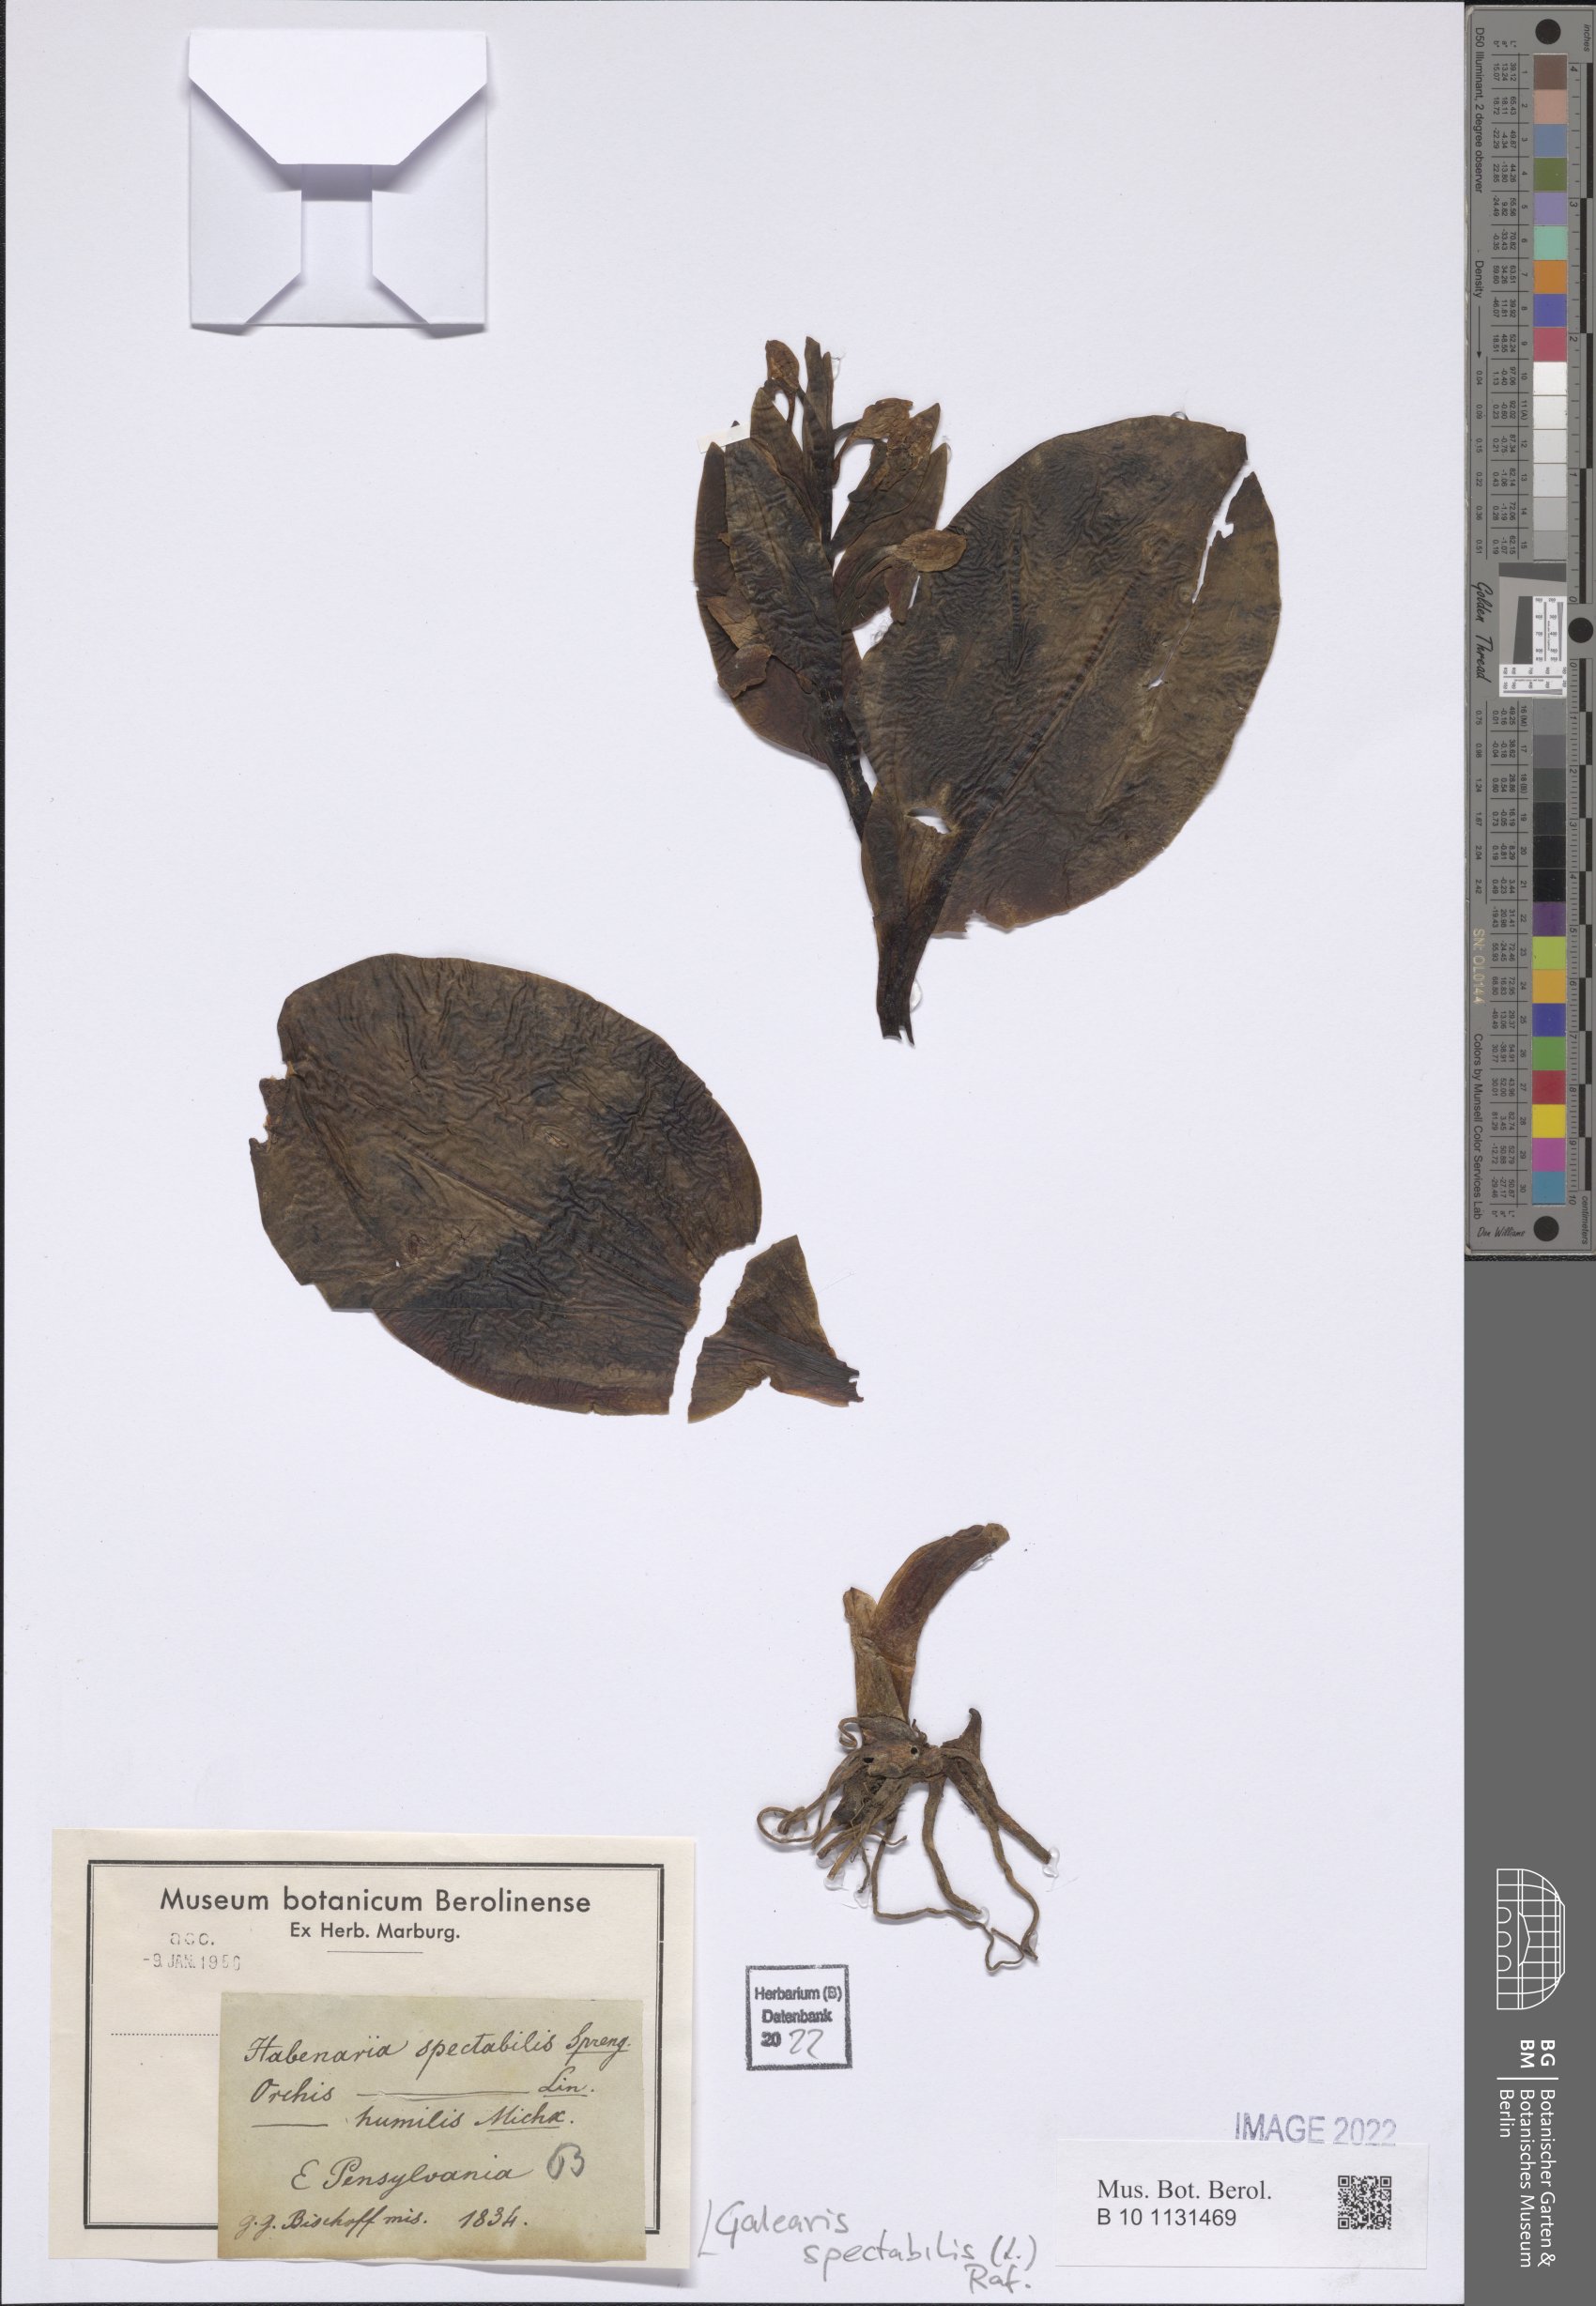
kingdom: Plantae
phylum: Tracheophyta
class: Liliopsida
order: Asparagales
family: Orchidaceae
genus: Galearis
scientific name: Galearis spectabilis
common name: Purple-hooded orchis
